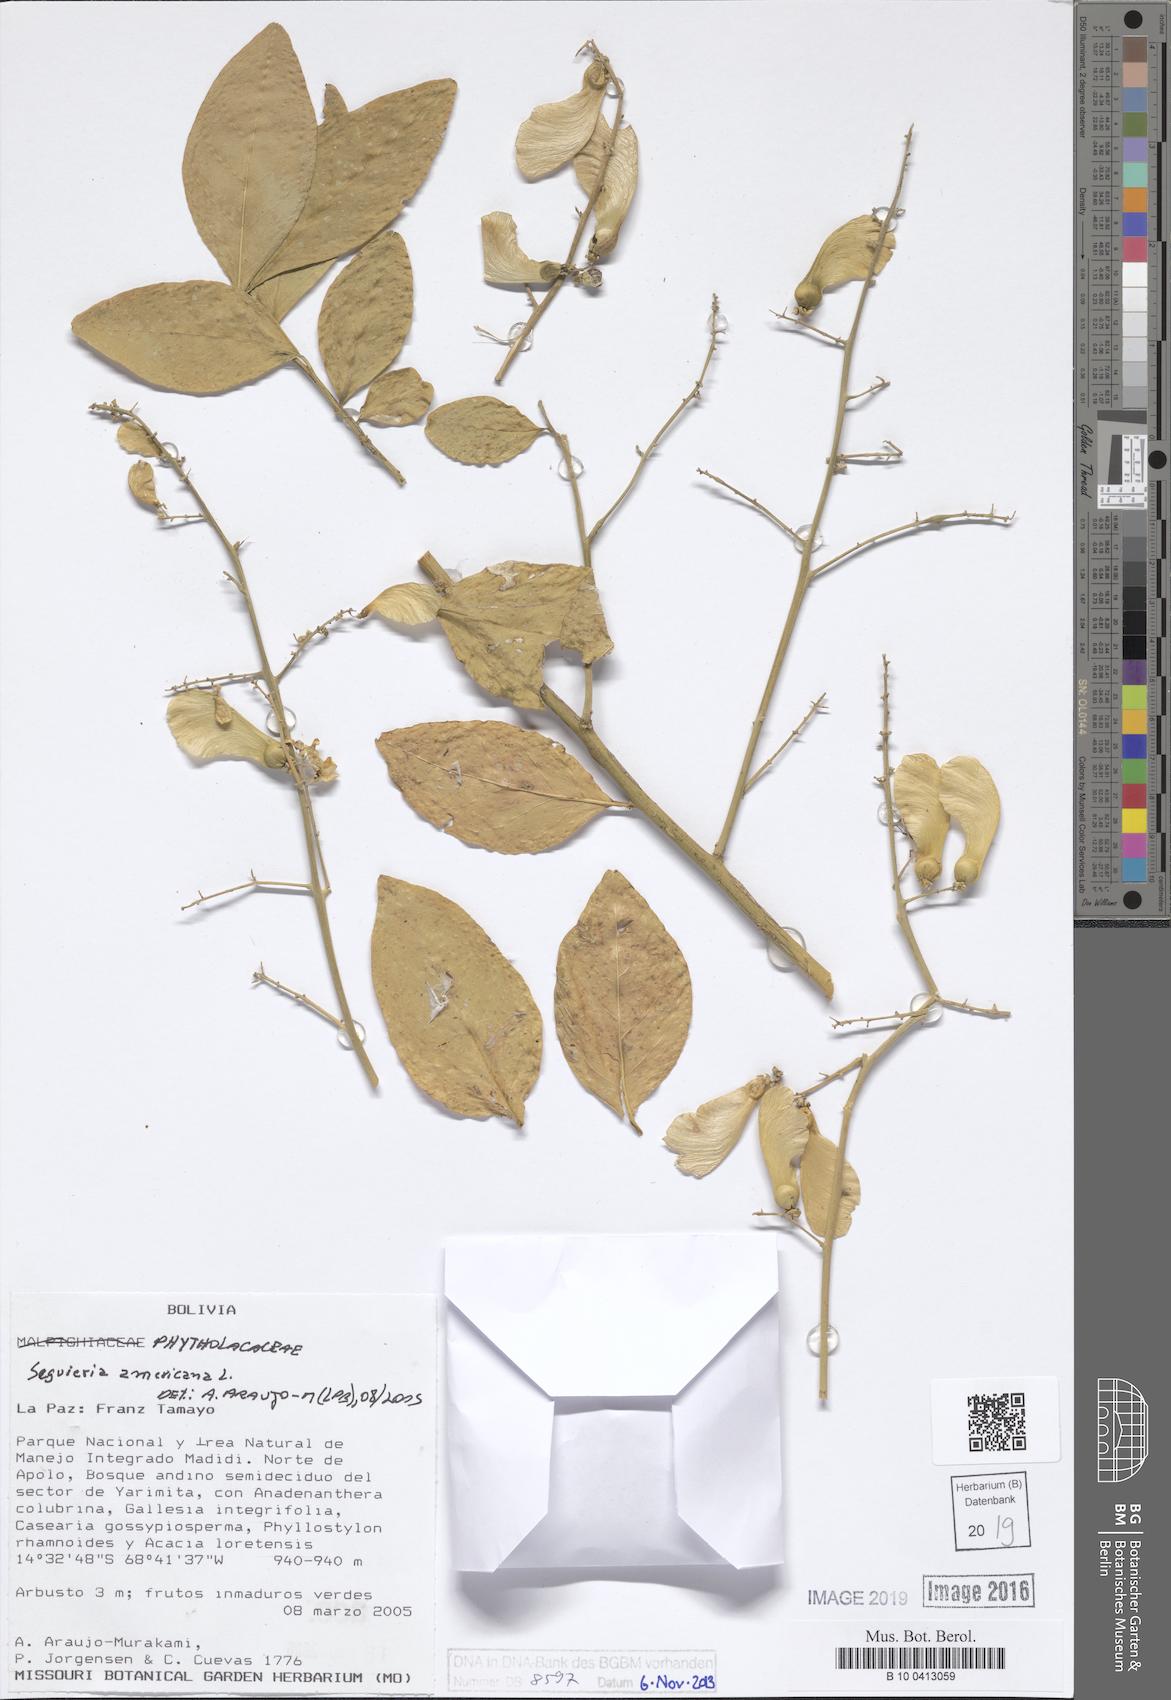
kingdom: Plantae
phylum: Tracheophyta
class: Magnoliopsida
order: Caryophyllales
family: Phytolaccaceae
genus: Seguieria
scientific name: Seguieria americana
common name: American seguieria
